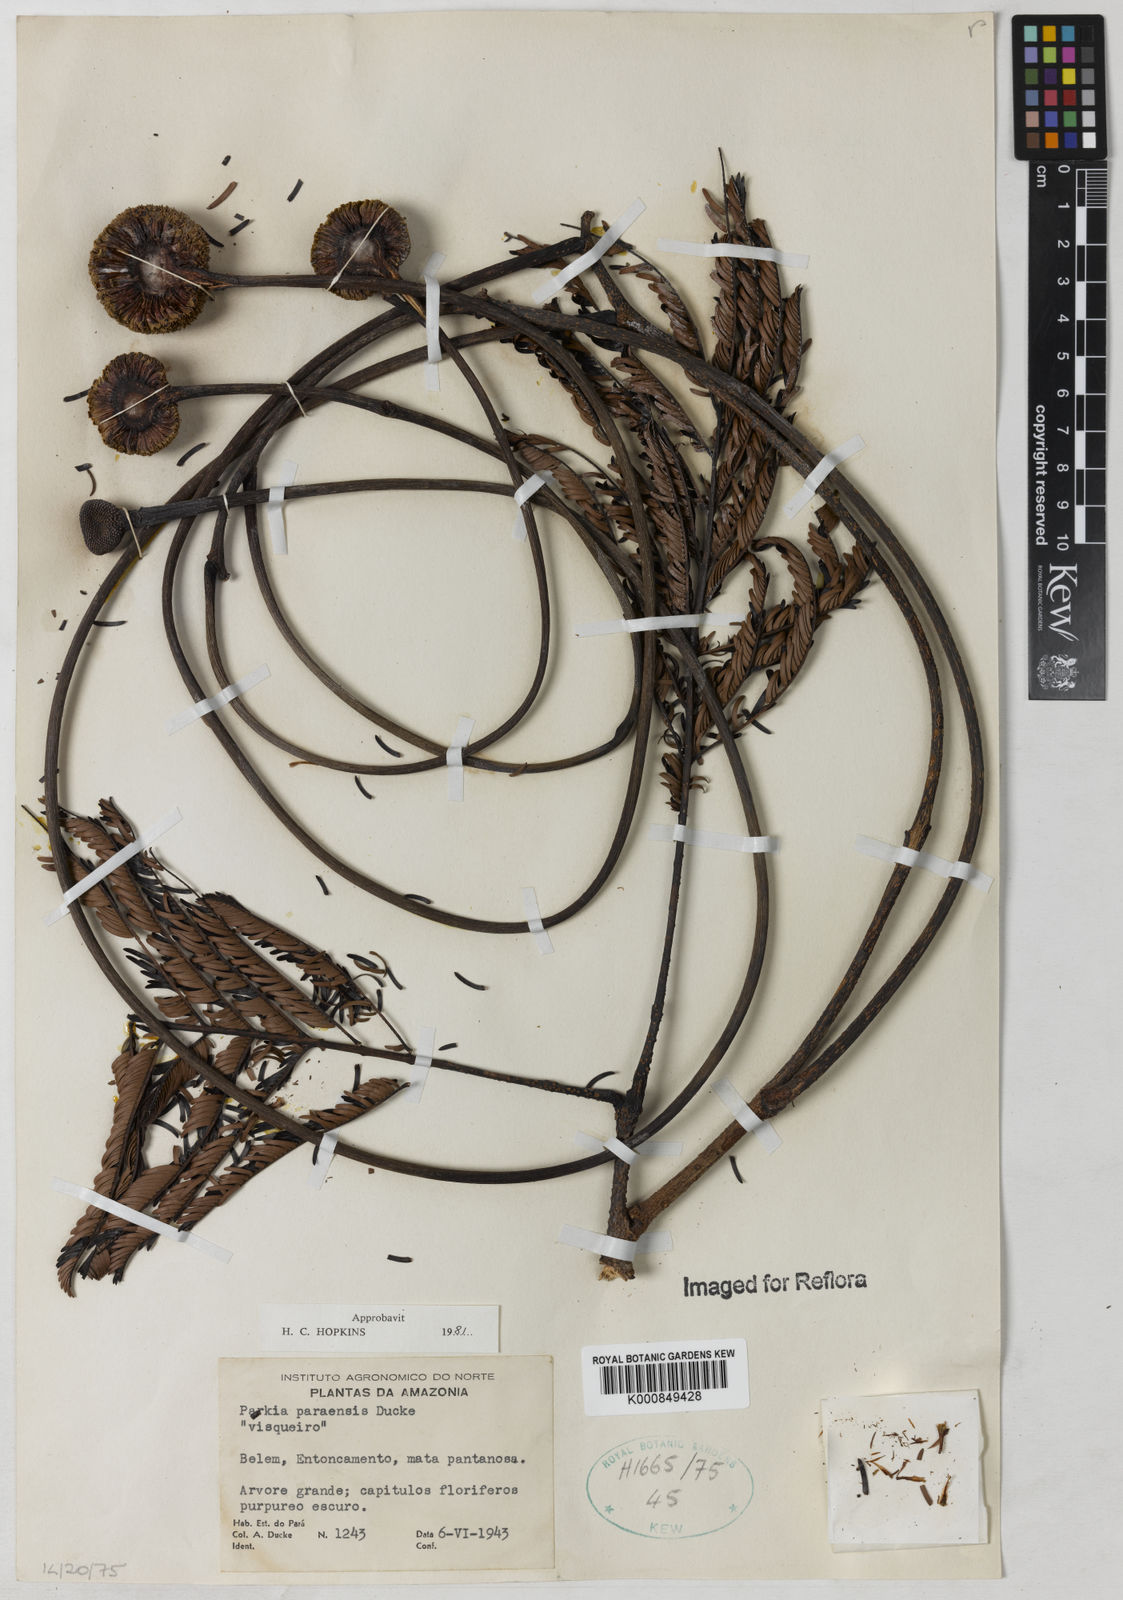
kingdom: Plantae
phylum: Tracheophyta
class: Magnoliopsida
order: Fabales
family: Fabaceae
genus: Parkia
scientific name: Parkia paraensis
